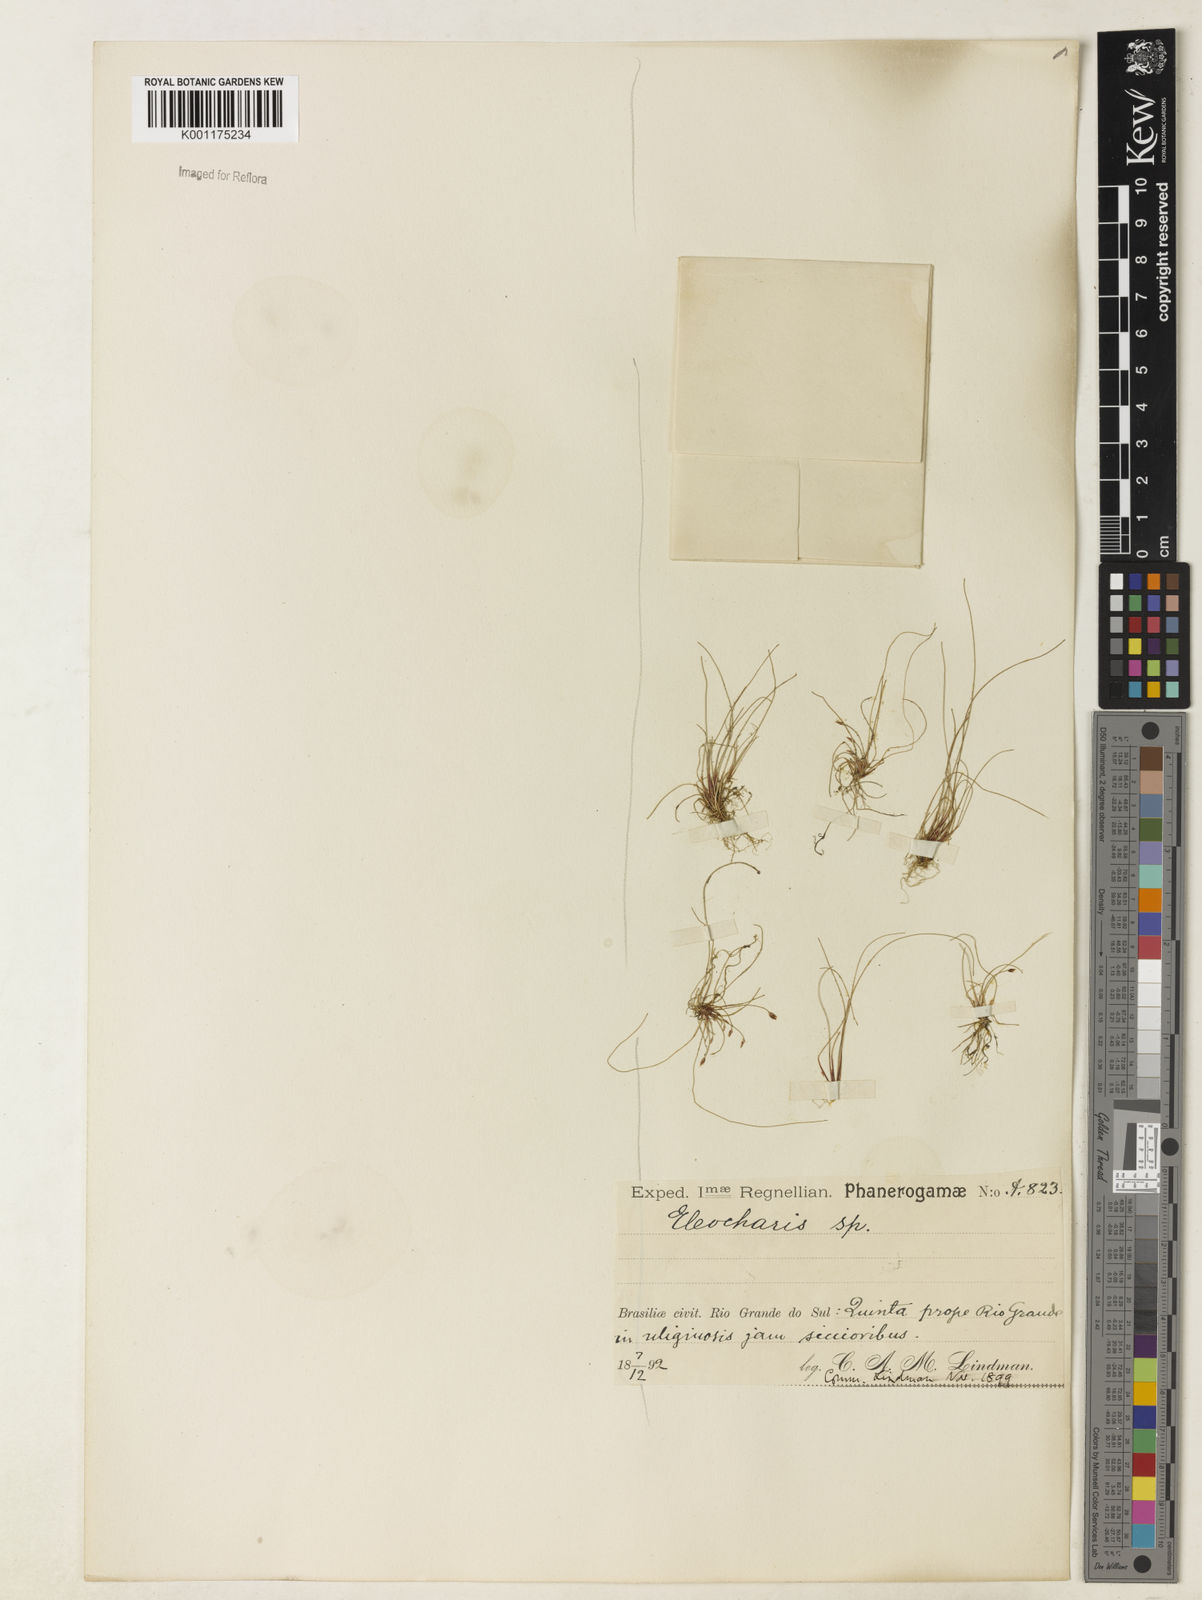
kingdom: Plantae
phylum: Tracheophyta
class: Liliopsida
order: Poales
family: Cyperaceae
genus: Eleocharis
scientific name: Eleocharis acicularis
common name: Needle spike-rush
